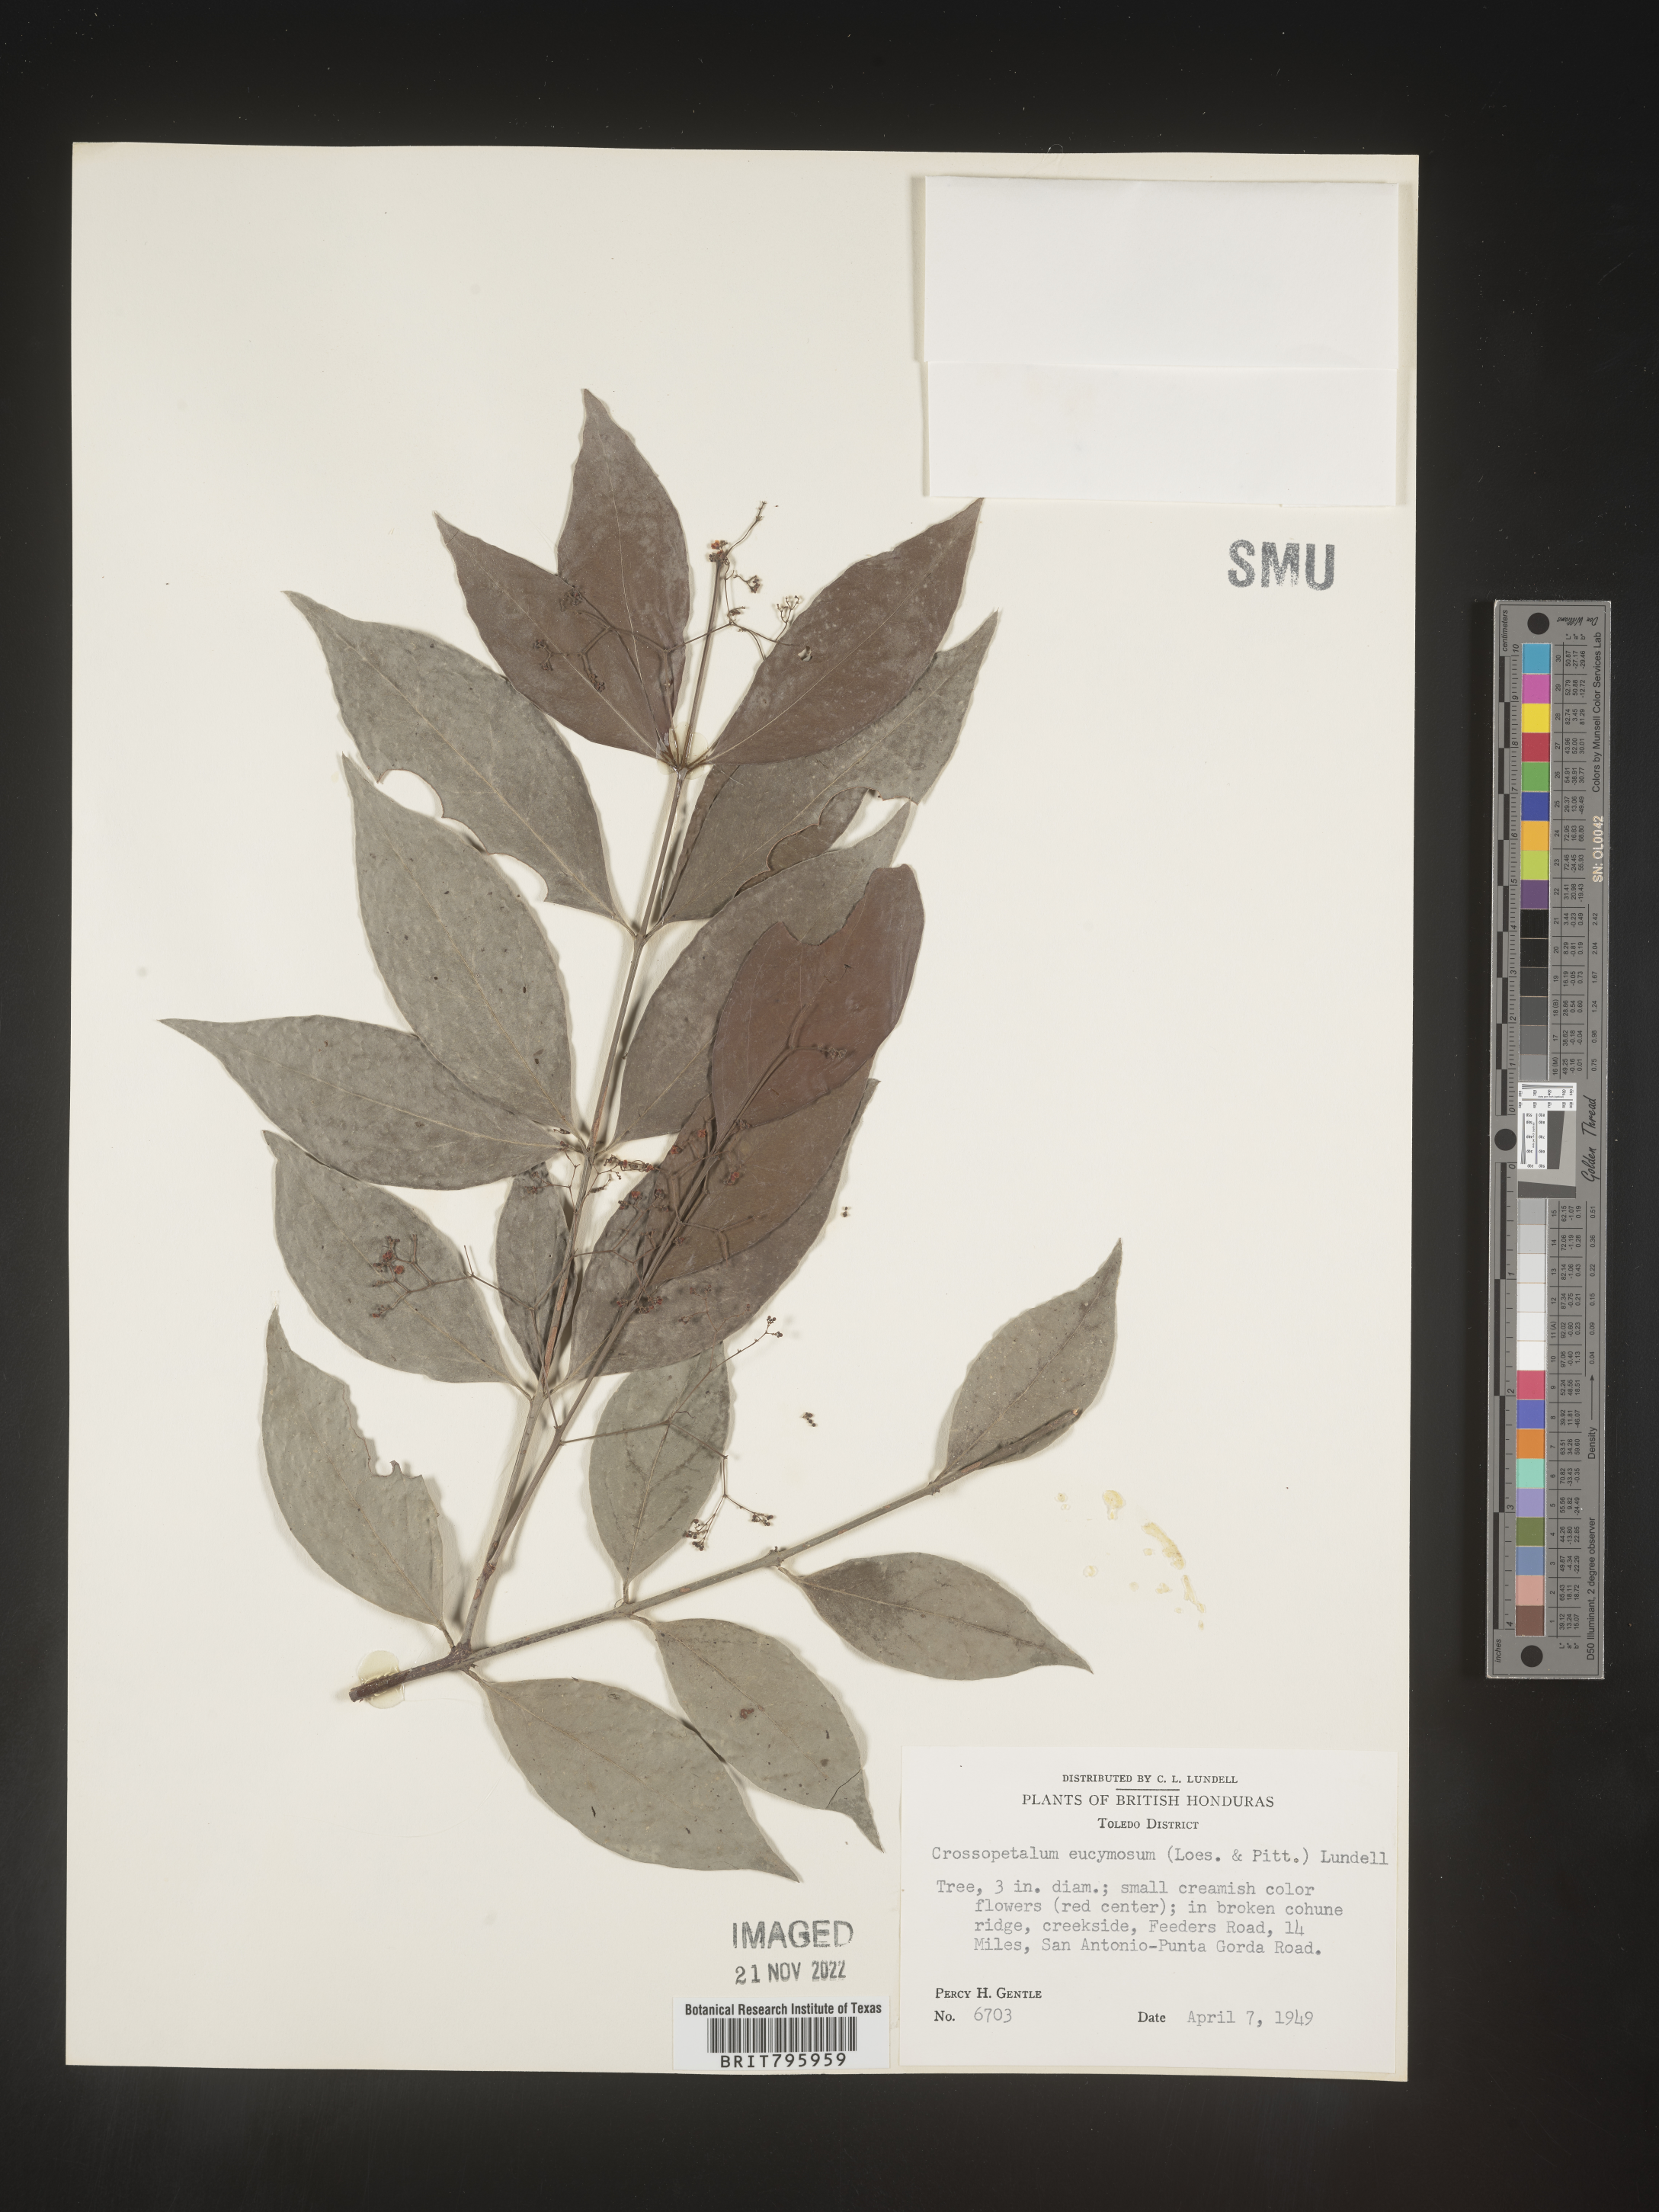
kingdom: Plantae
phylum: Tracheophyta
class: Magnoliopsida
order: Celastrales
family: Celastraceae
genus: Crossopetalum
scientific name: Crossopetalum
